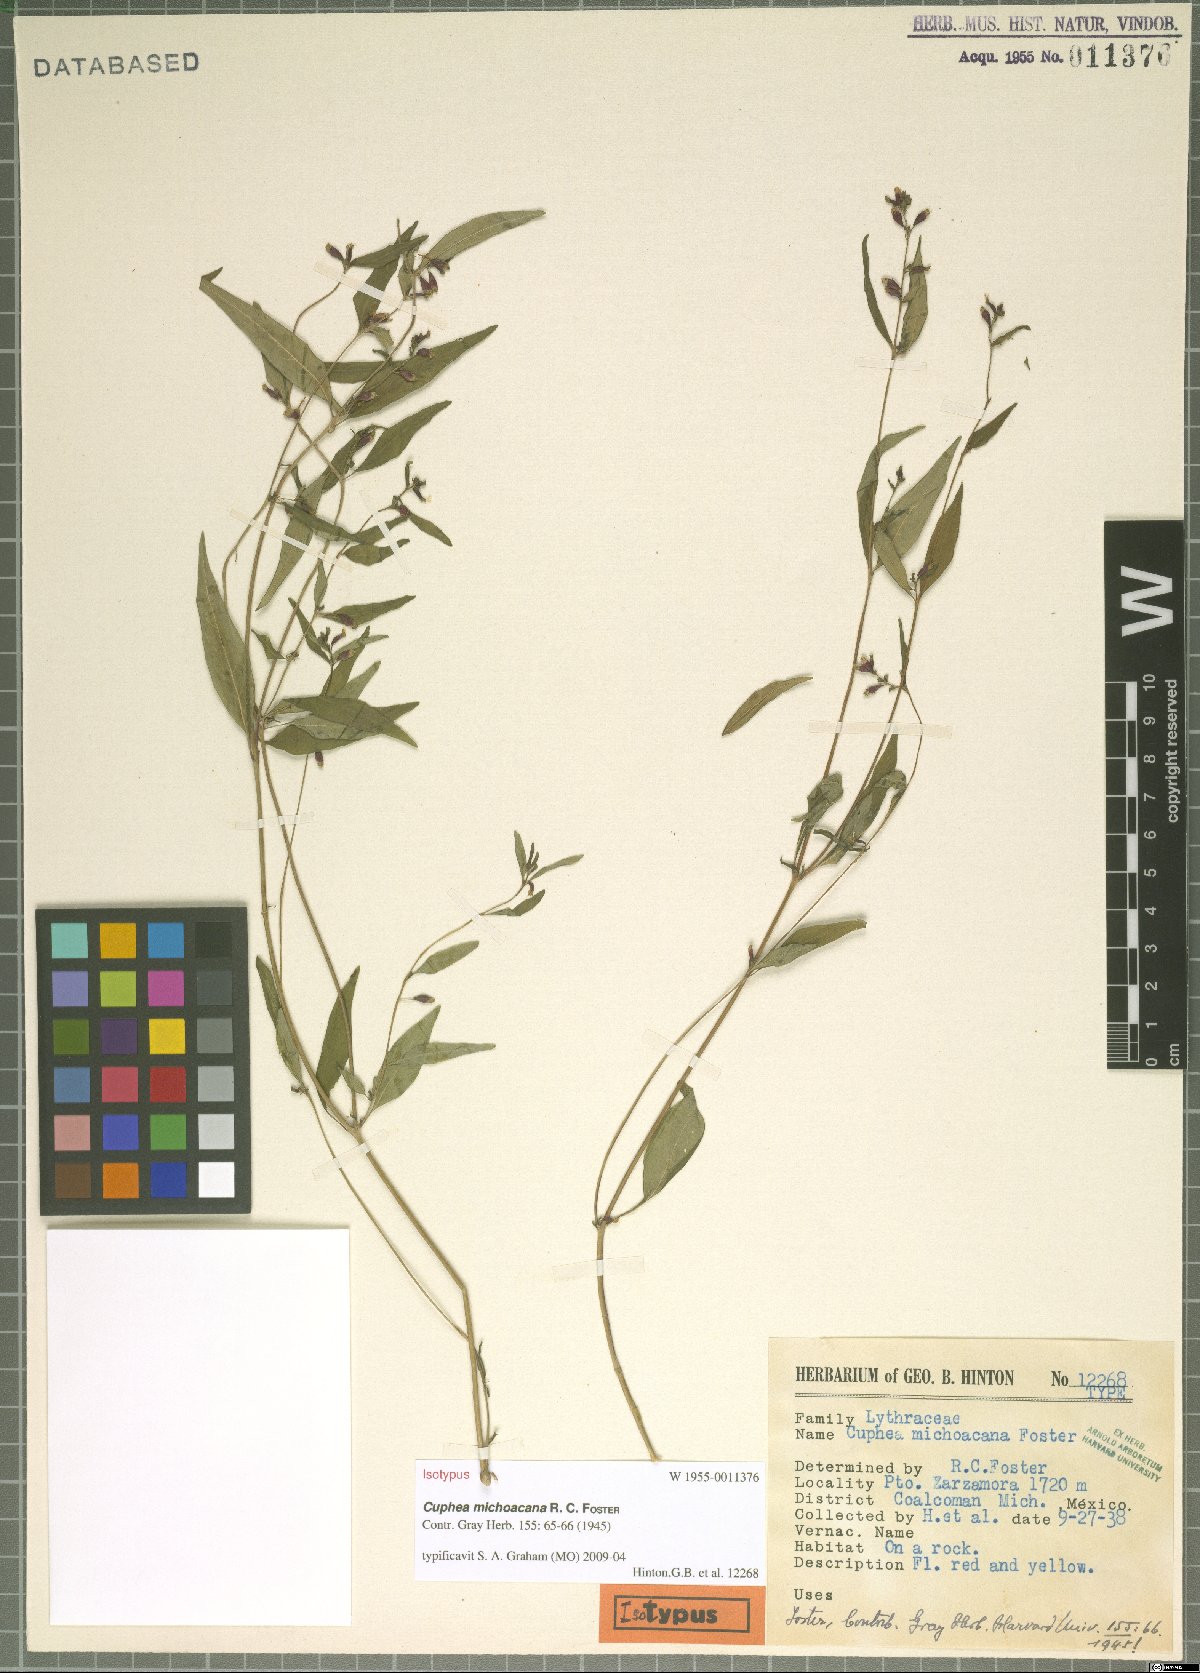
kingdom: Plantae
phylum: Tracheophyta
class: Magnoliopsida
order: Myrtales
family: Lythraceae
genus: Cuphea
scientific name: Cuphea michoacana
